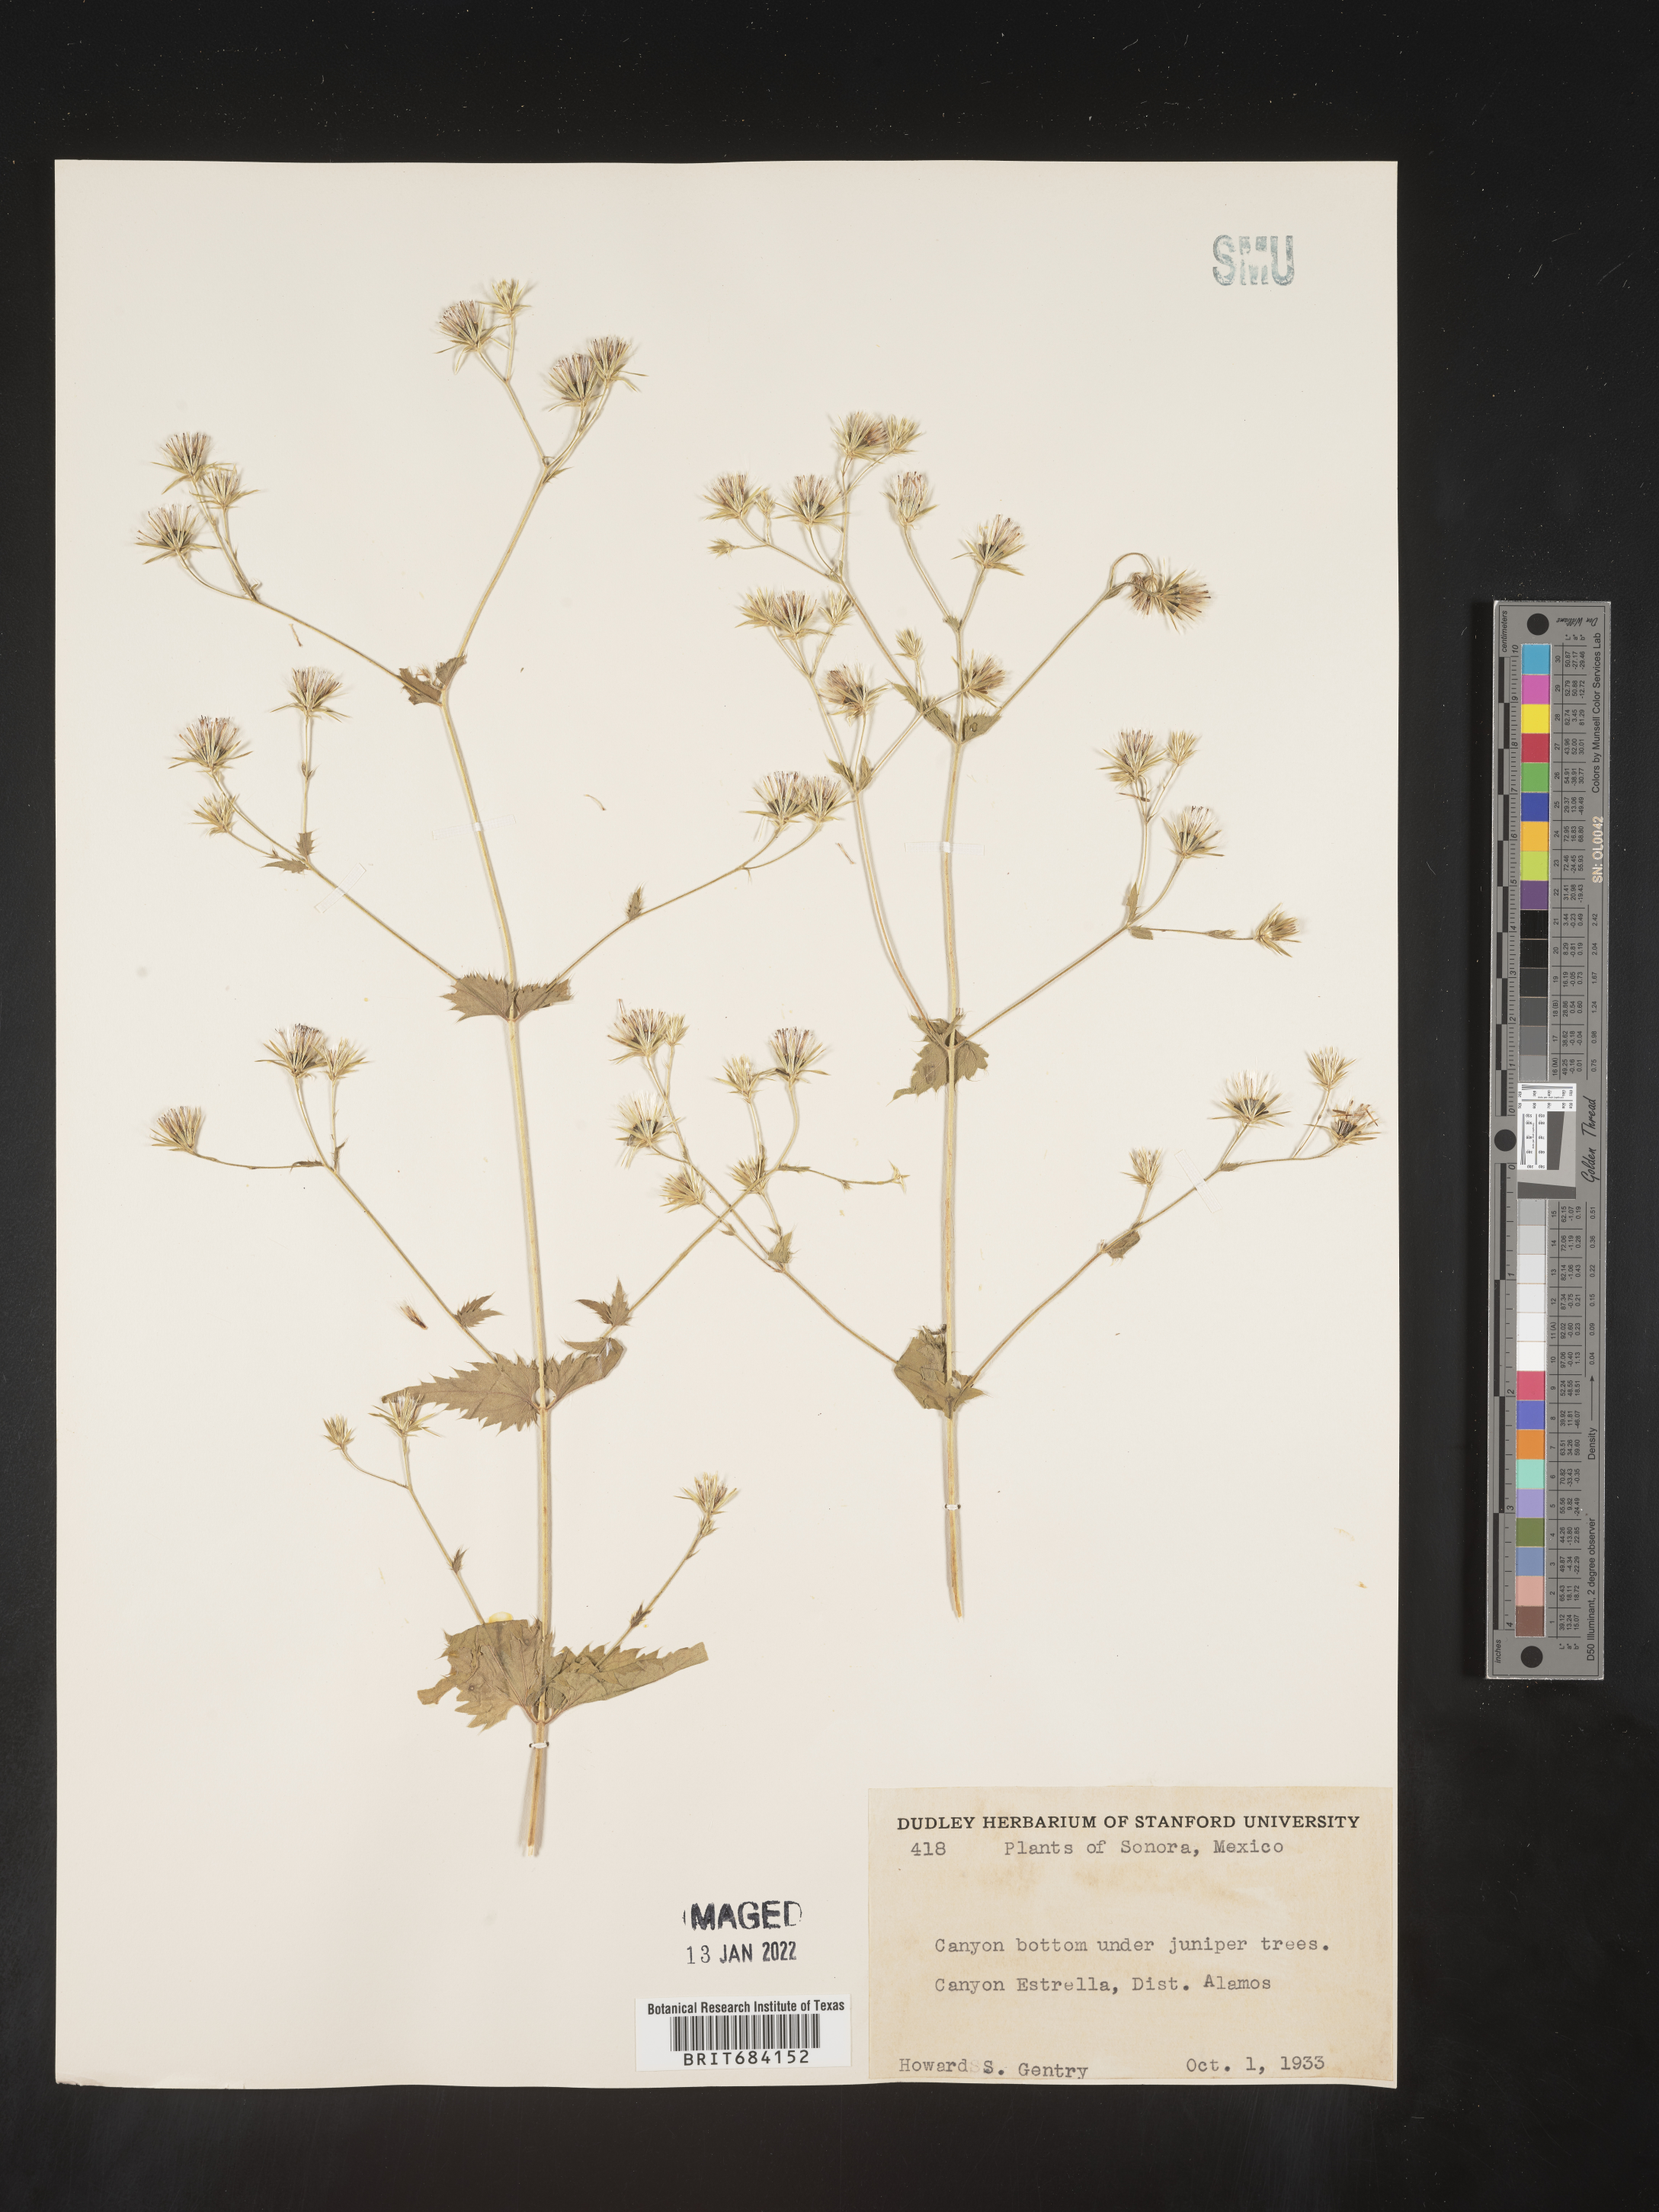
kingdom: Plantae
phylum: Tracheophyta
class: Magnoliopsida
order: Asterales
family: Asteraceae
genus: Brickellia
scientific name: Brickellia
